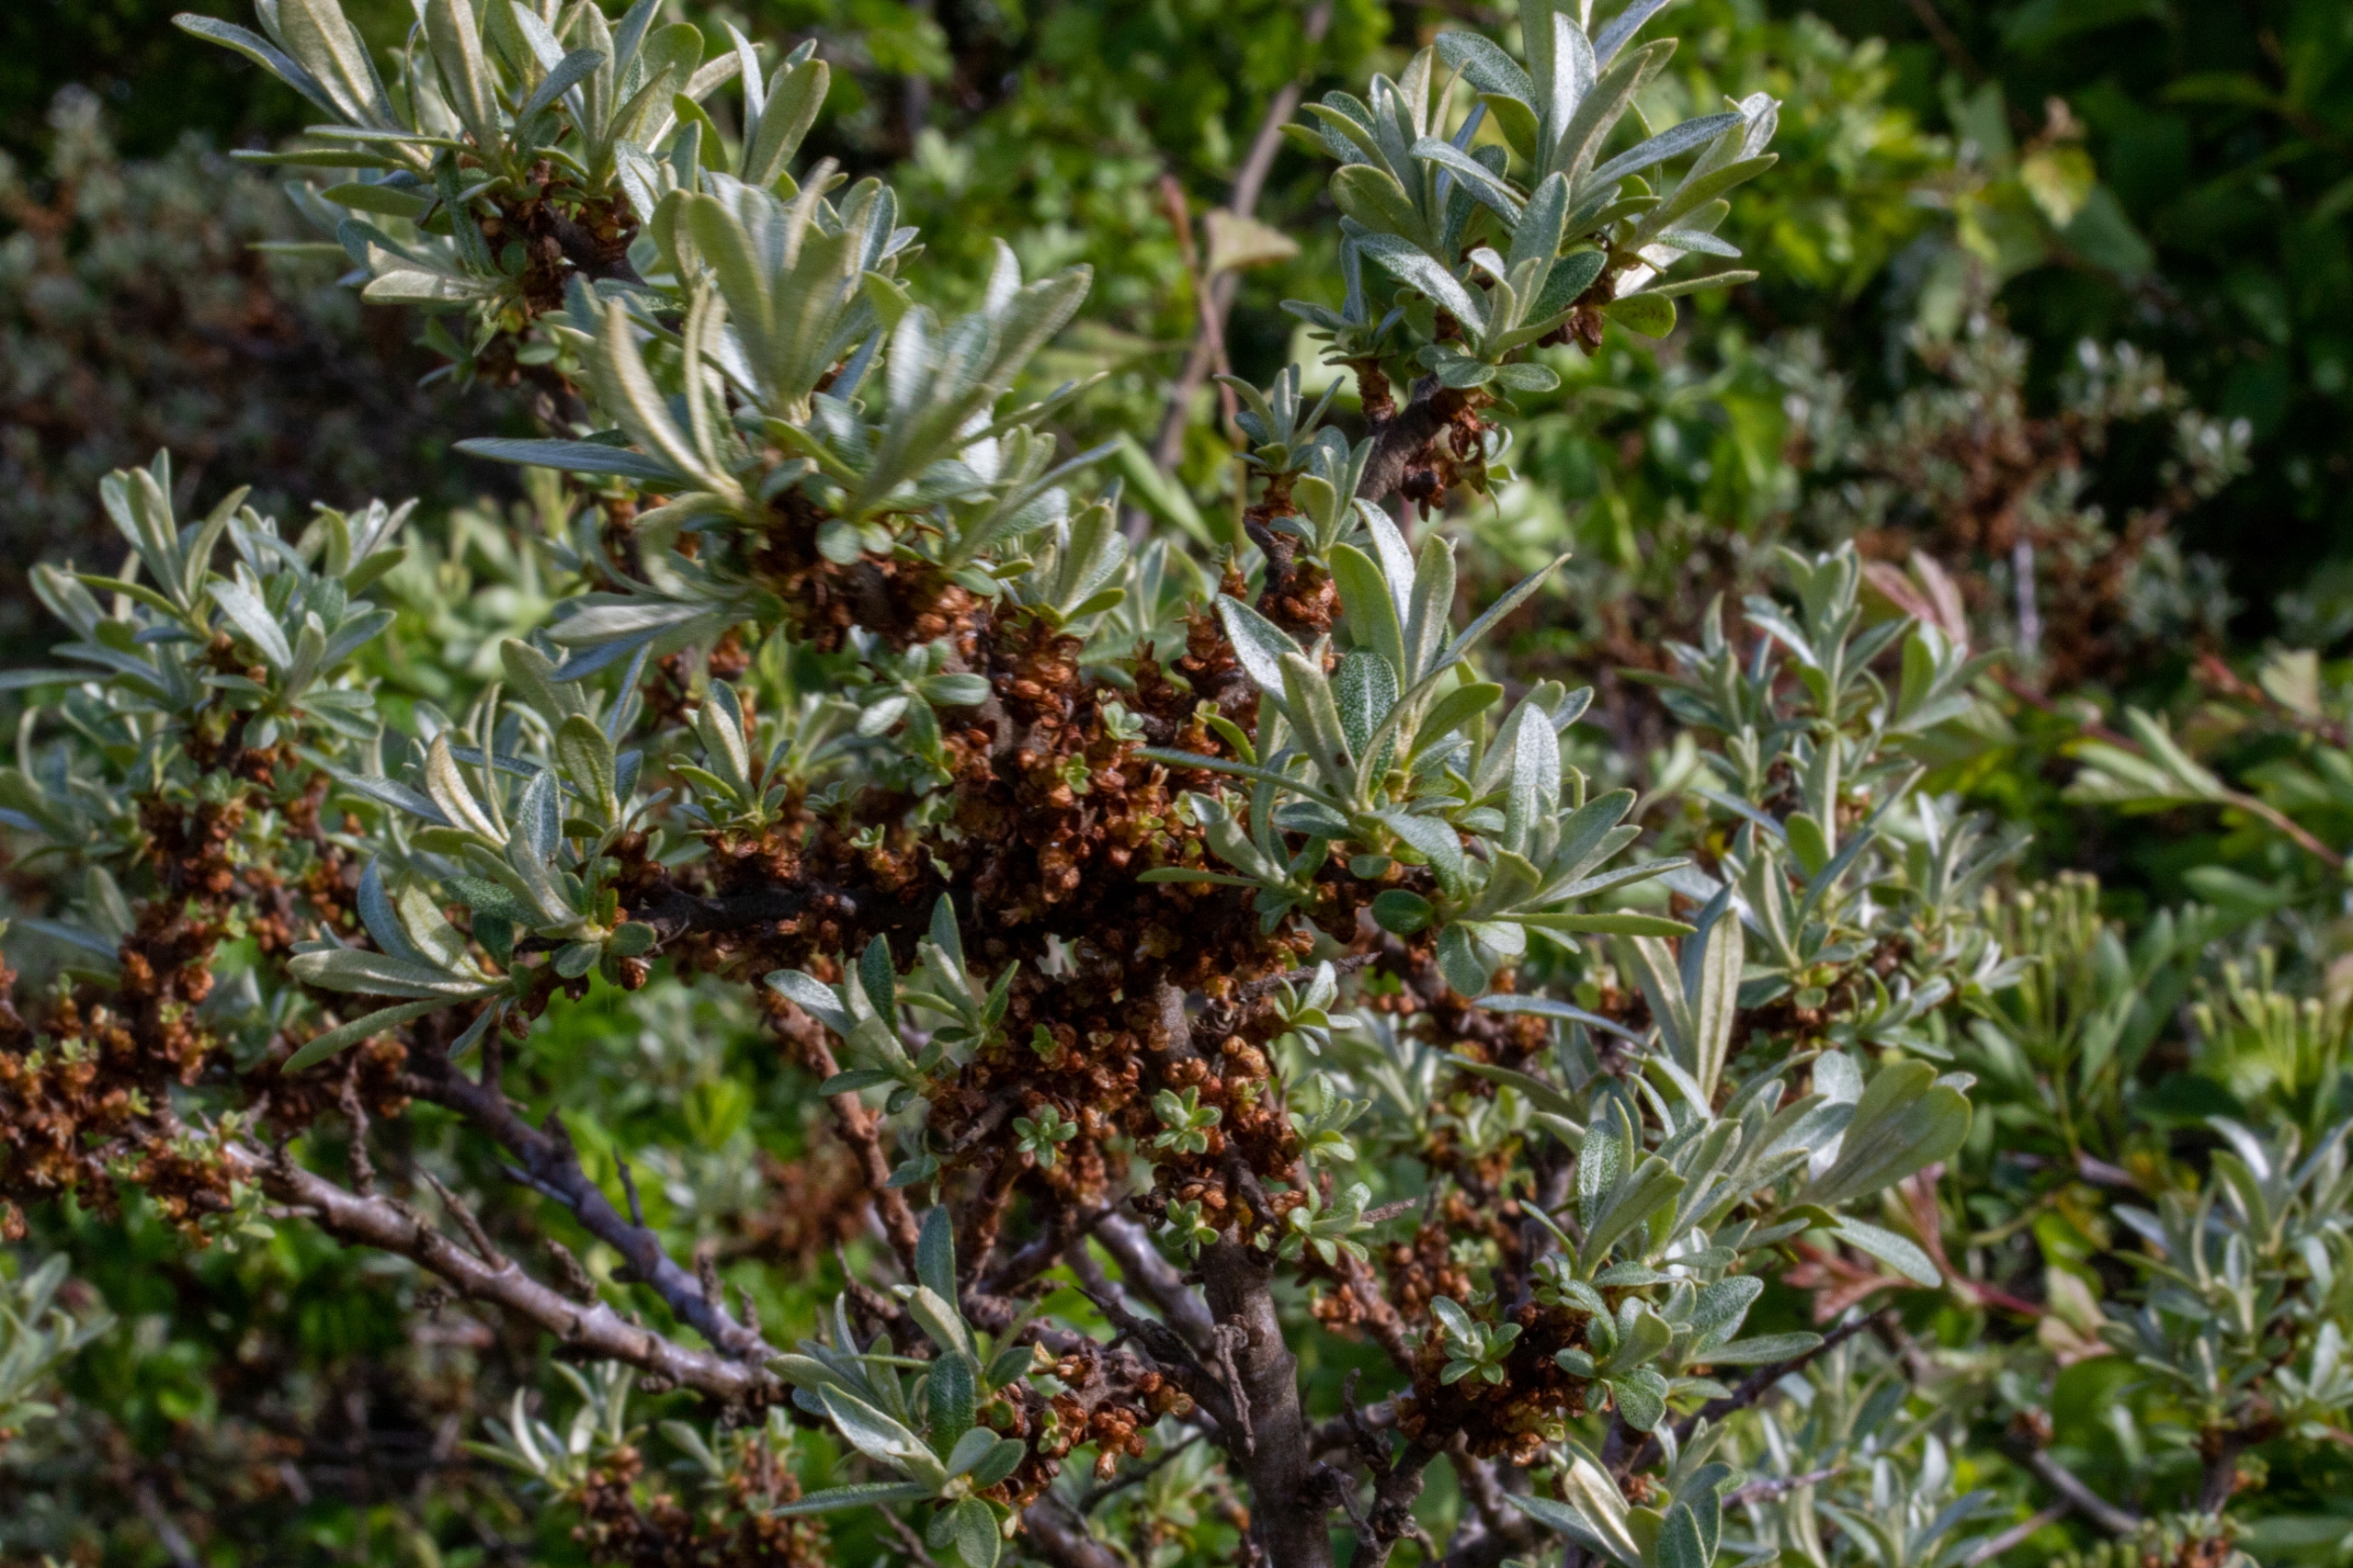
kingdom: Plantae
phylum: Tracheophyta
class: Magnoliopsida
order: Rosales
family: Elaeagnaceae
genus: Hippophae
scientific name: Hippophae rhamnoides
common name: Havtorn
